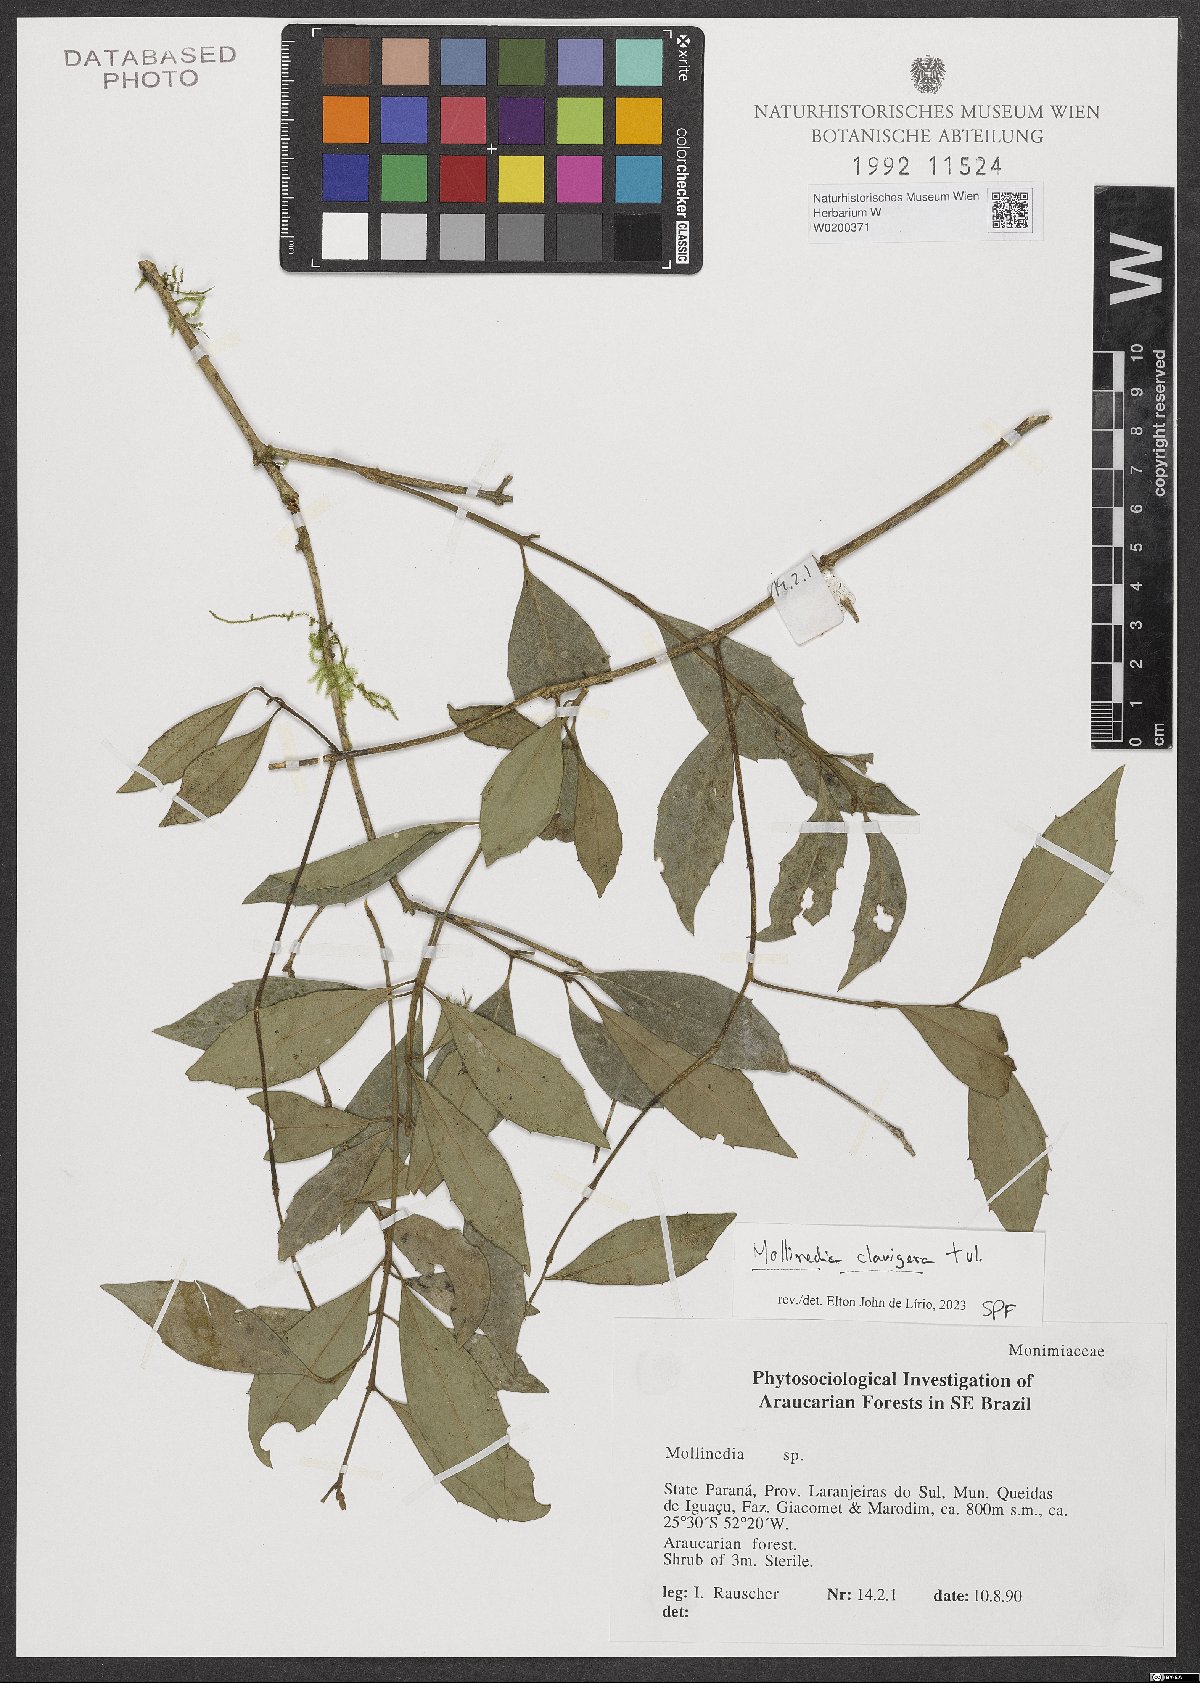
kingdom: Plantae
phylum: Tracheophyta
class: Magnoliopsida
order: Laurales
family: Monimiaceae
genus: Mollinedia
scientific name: Mollinedia clavigera
